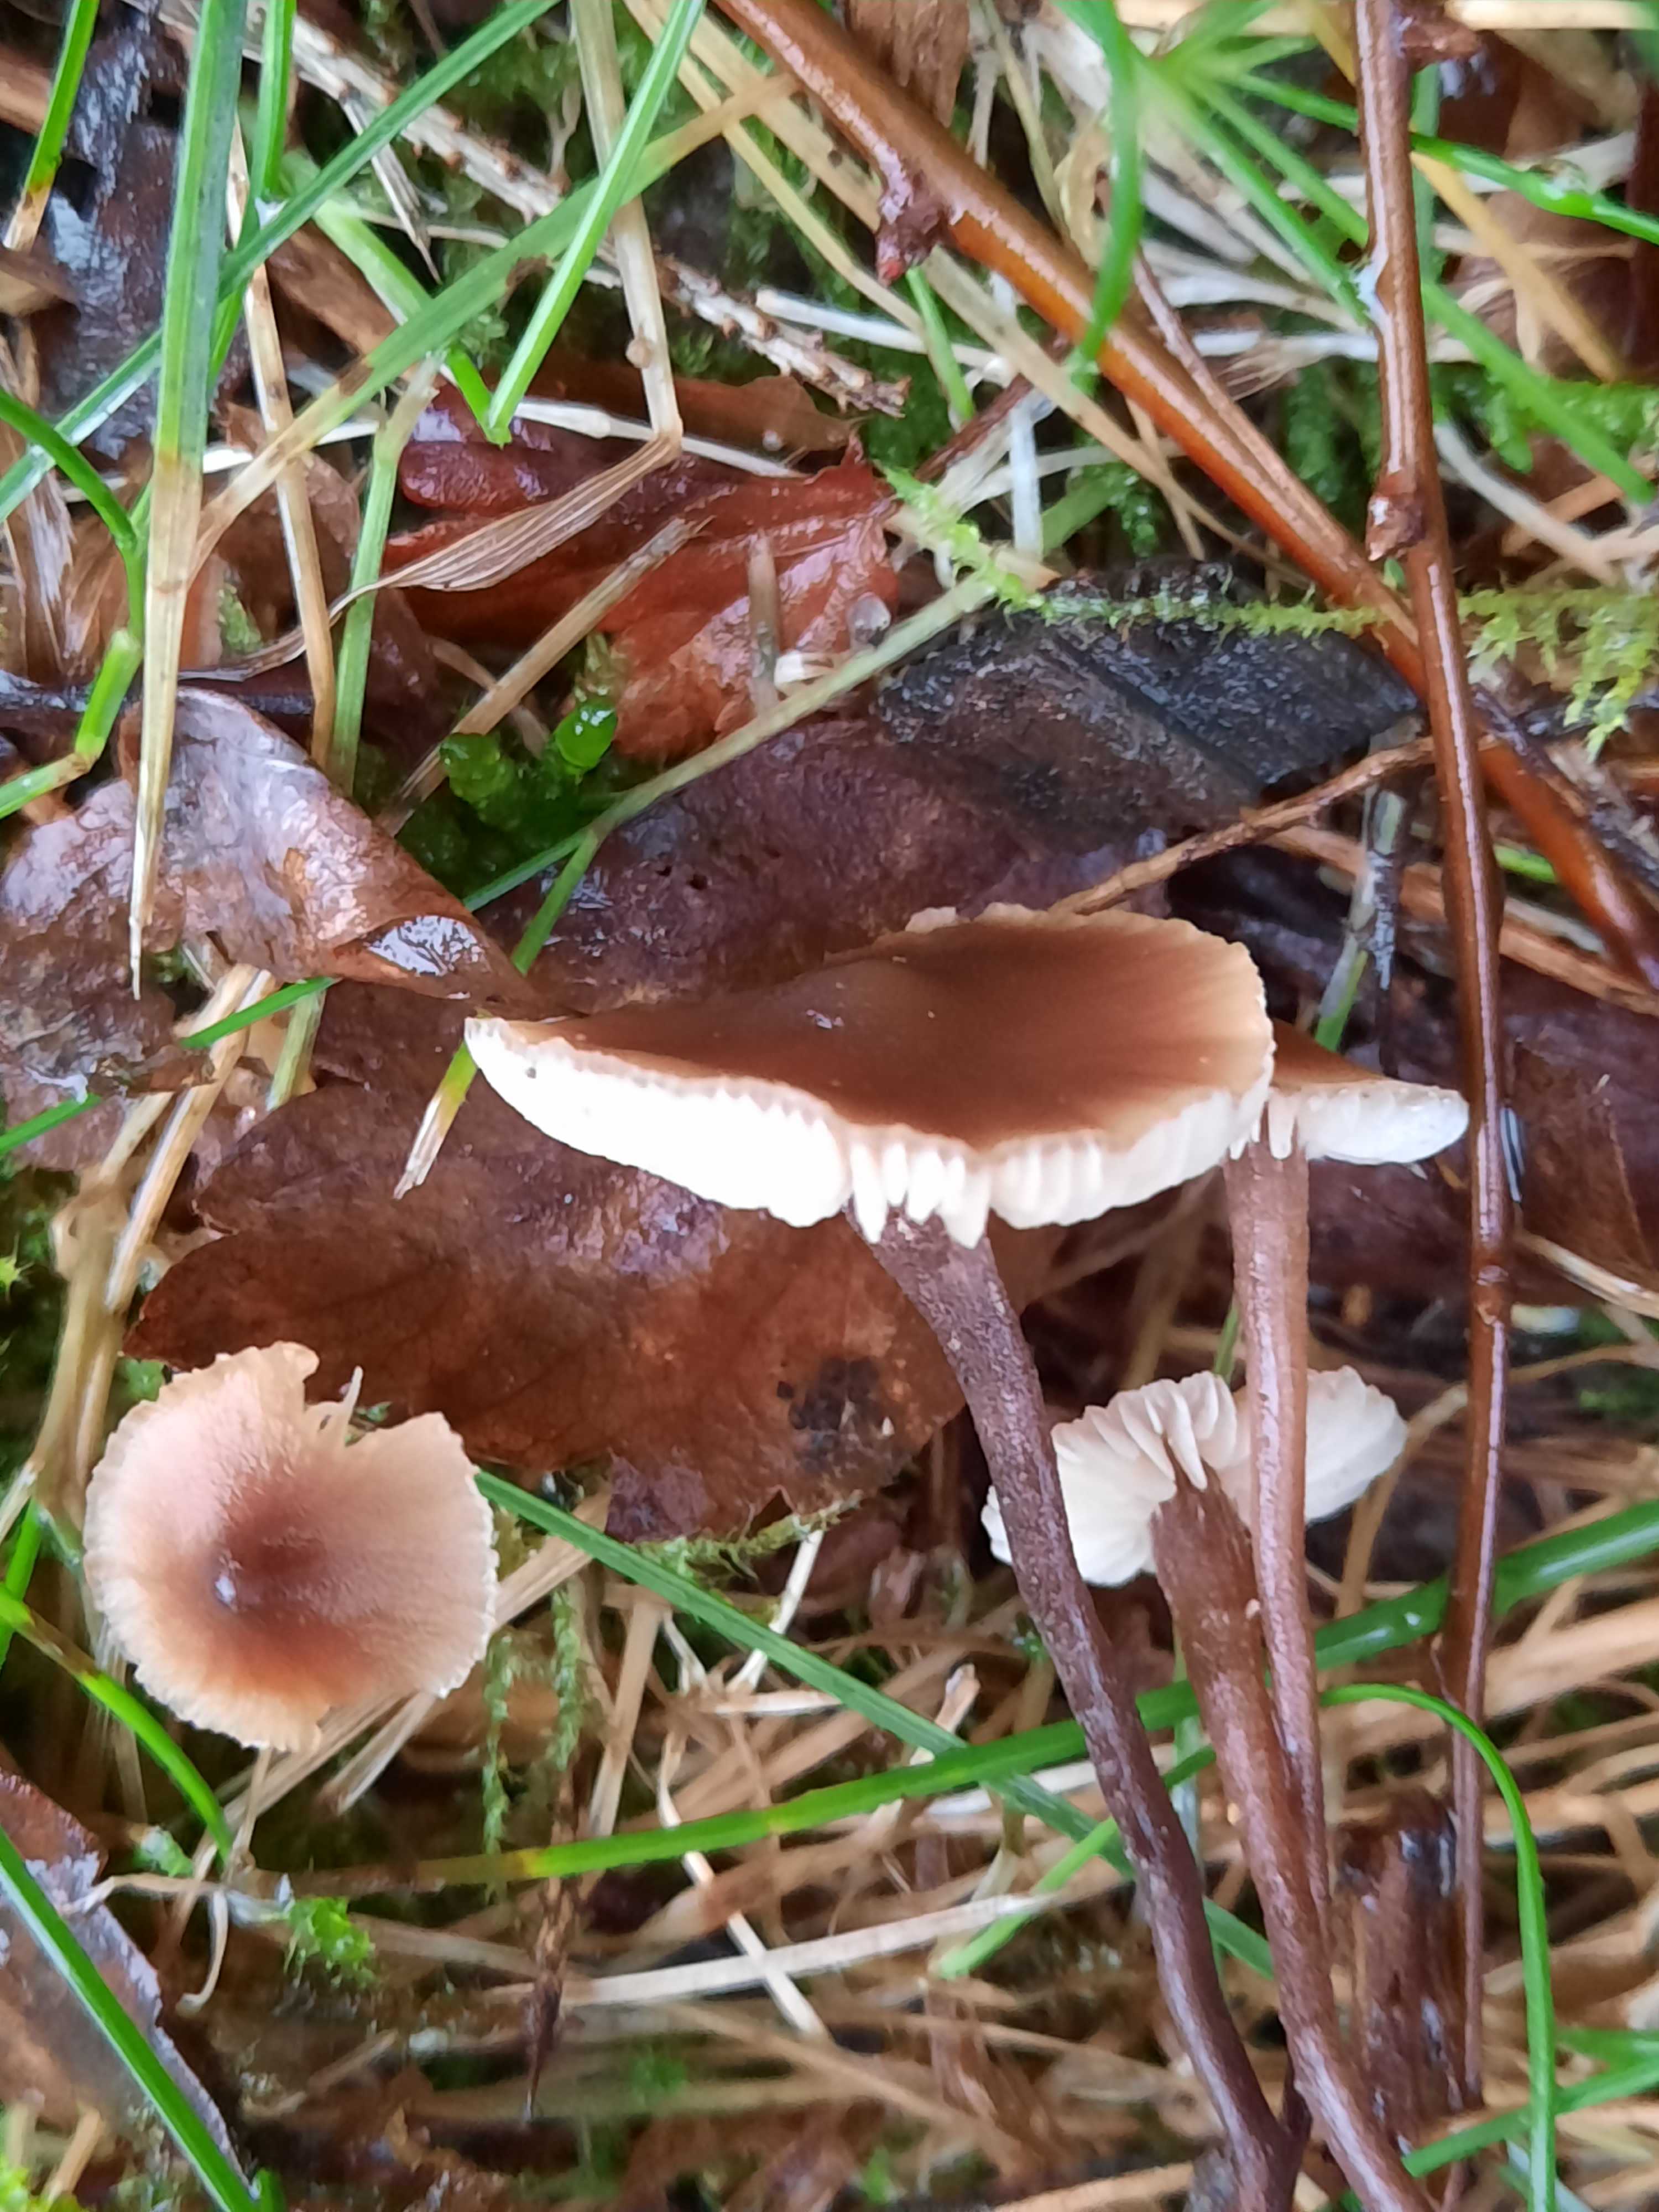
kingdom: Fungi
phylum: Basidiomycota
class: Agaricomycetes
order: Agaricales
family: Macrocystidiaceae
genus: Macrocystidia
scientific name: Macrocystidia cucumis
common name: Cucumber cap
